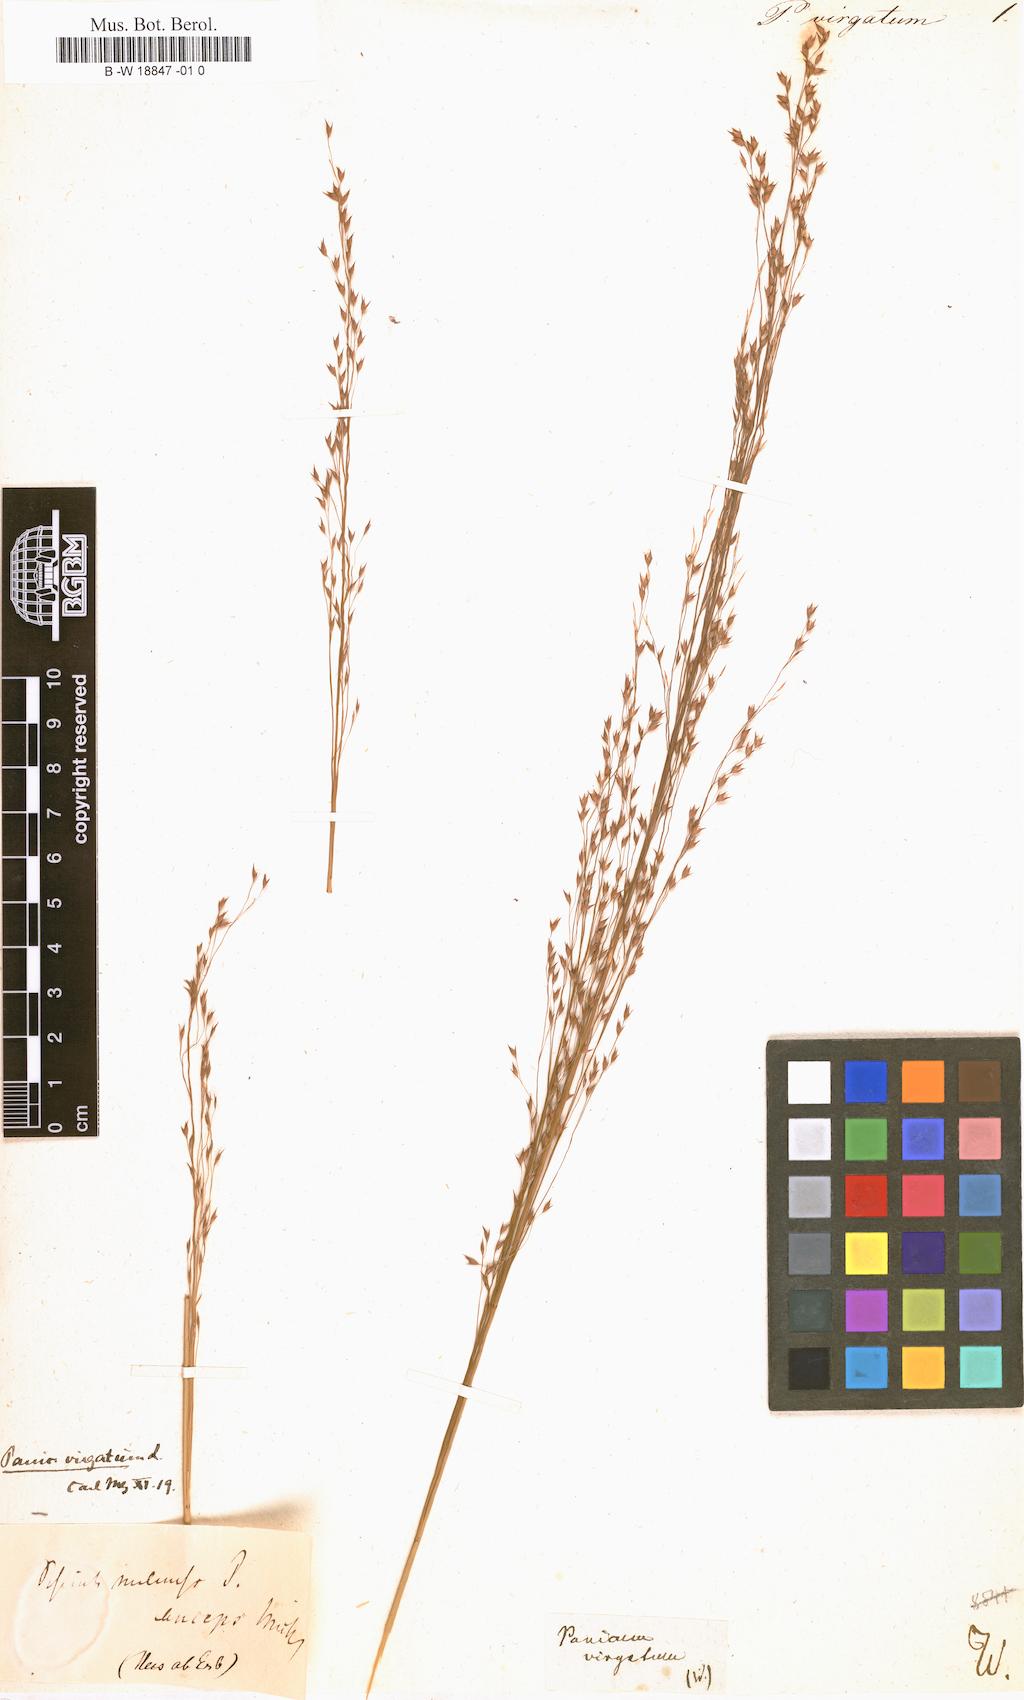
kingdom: Plantae
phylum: Tracheophyta
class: Liliopsida
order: Poales
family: Poaceae
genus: Panicum
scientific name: Panicum virgatum
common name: Switchgrass
